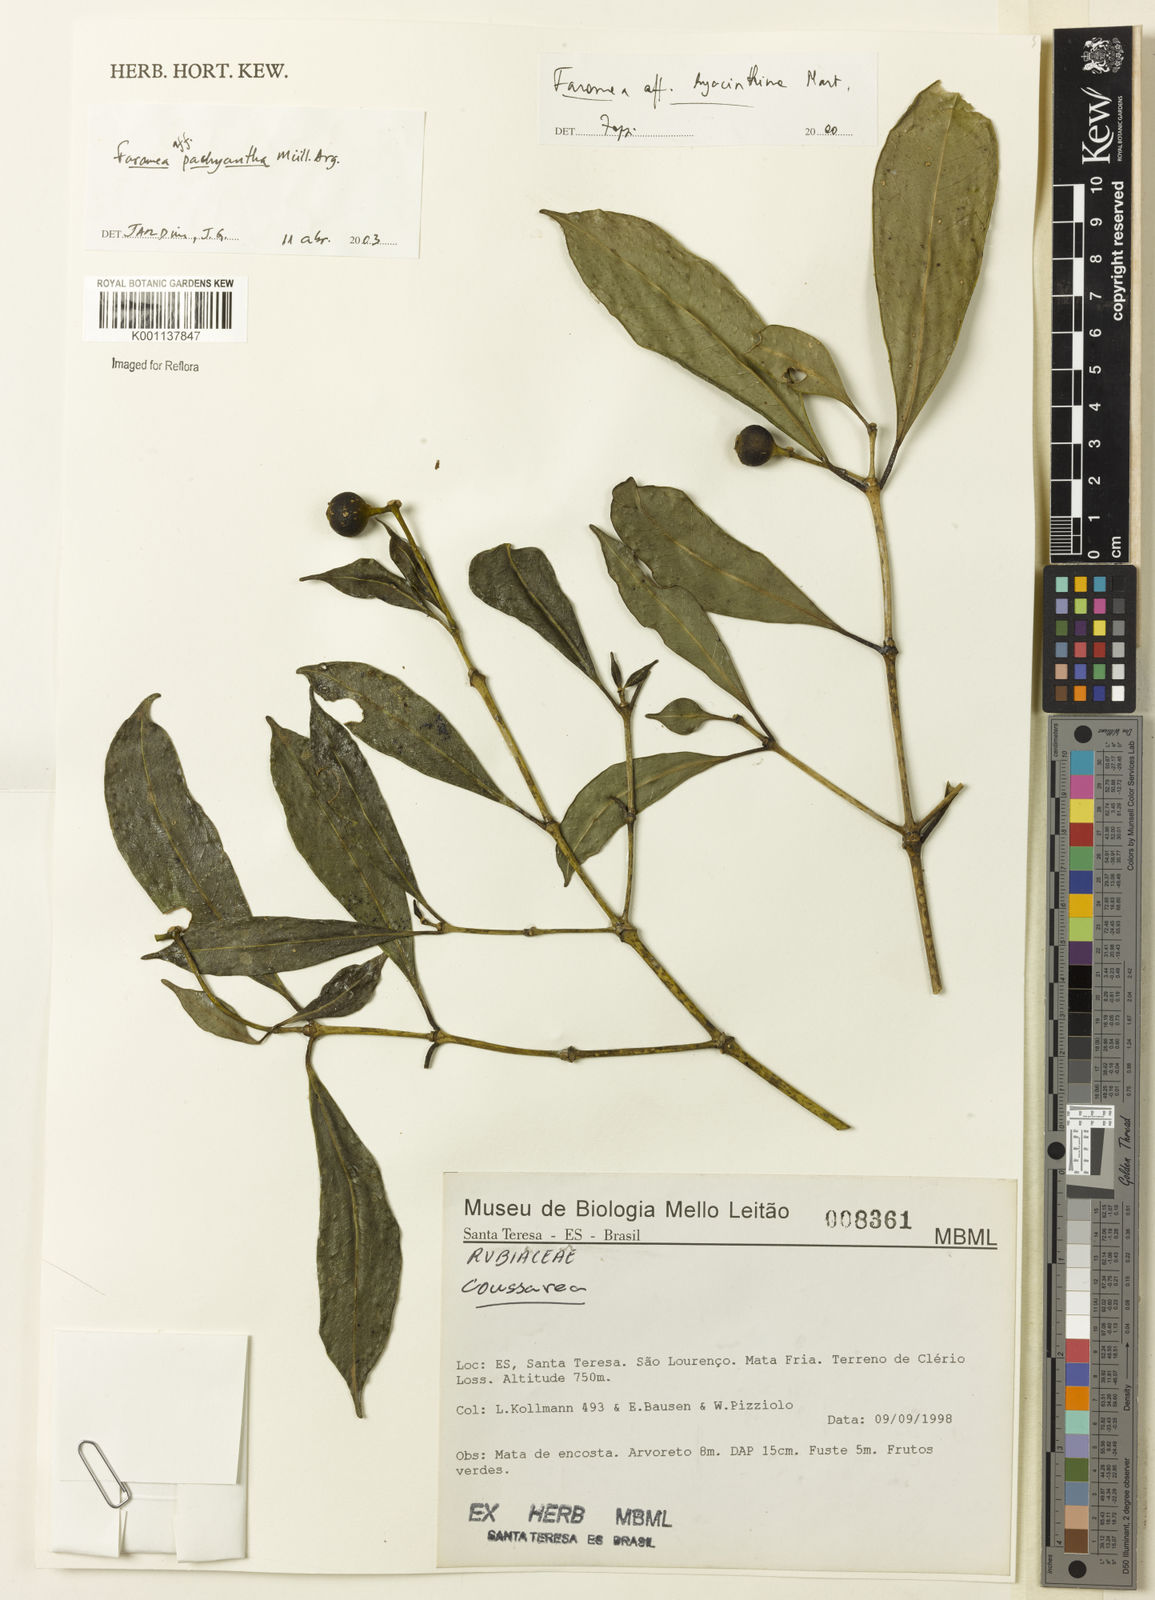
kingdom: Plantae
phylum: Tracheophyta
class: Magnoliopsida
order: Gentianales
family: Rubiaceae
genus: Faramea
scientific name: Faramea
